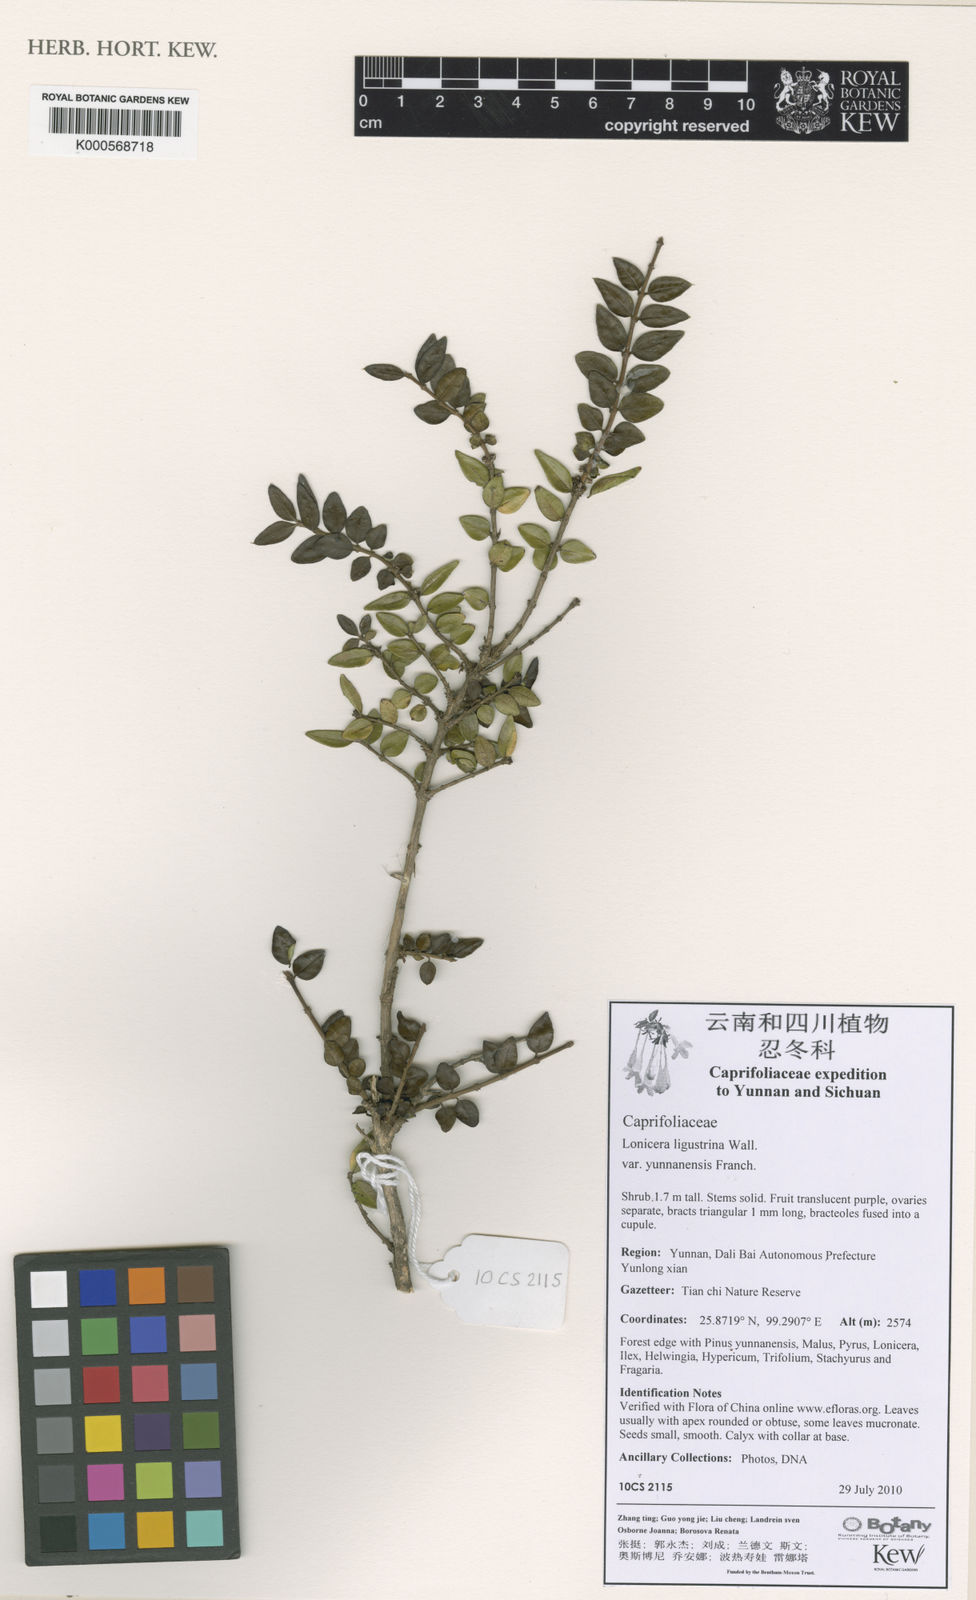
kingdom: Plantae
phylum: Tracheophyta
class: Magnoliopsida
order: Dipsacales
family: Caprifoliaceae
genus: Lonicera
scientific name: Lonicera ligustrina
